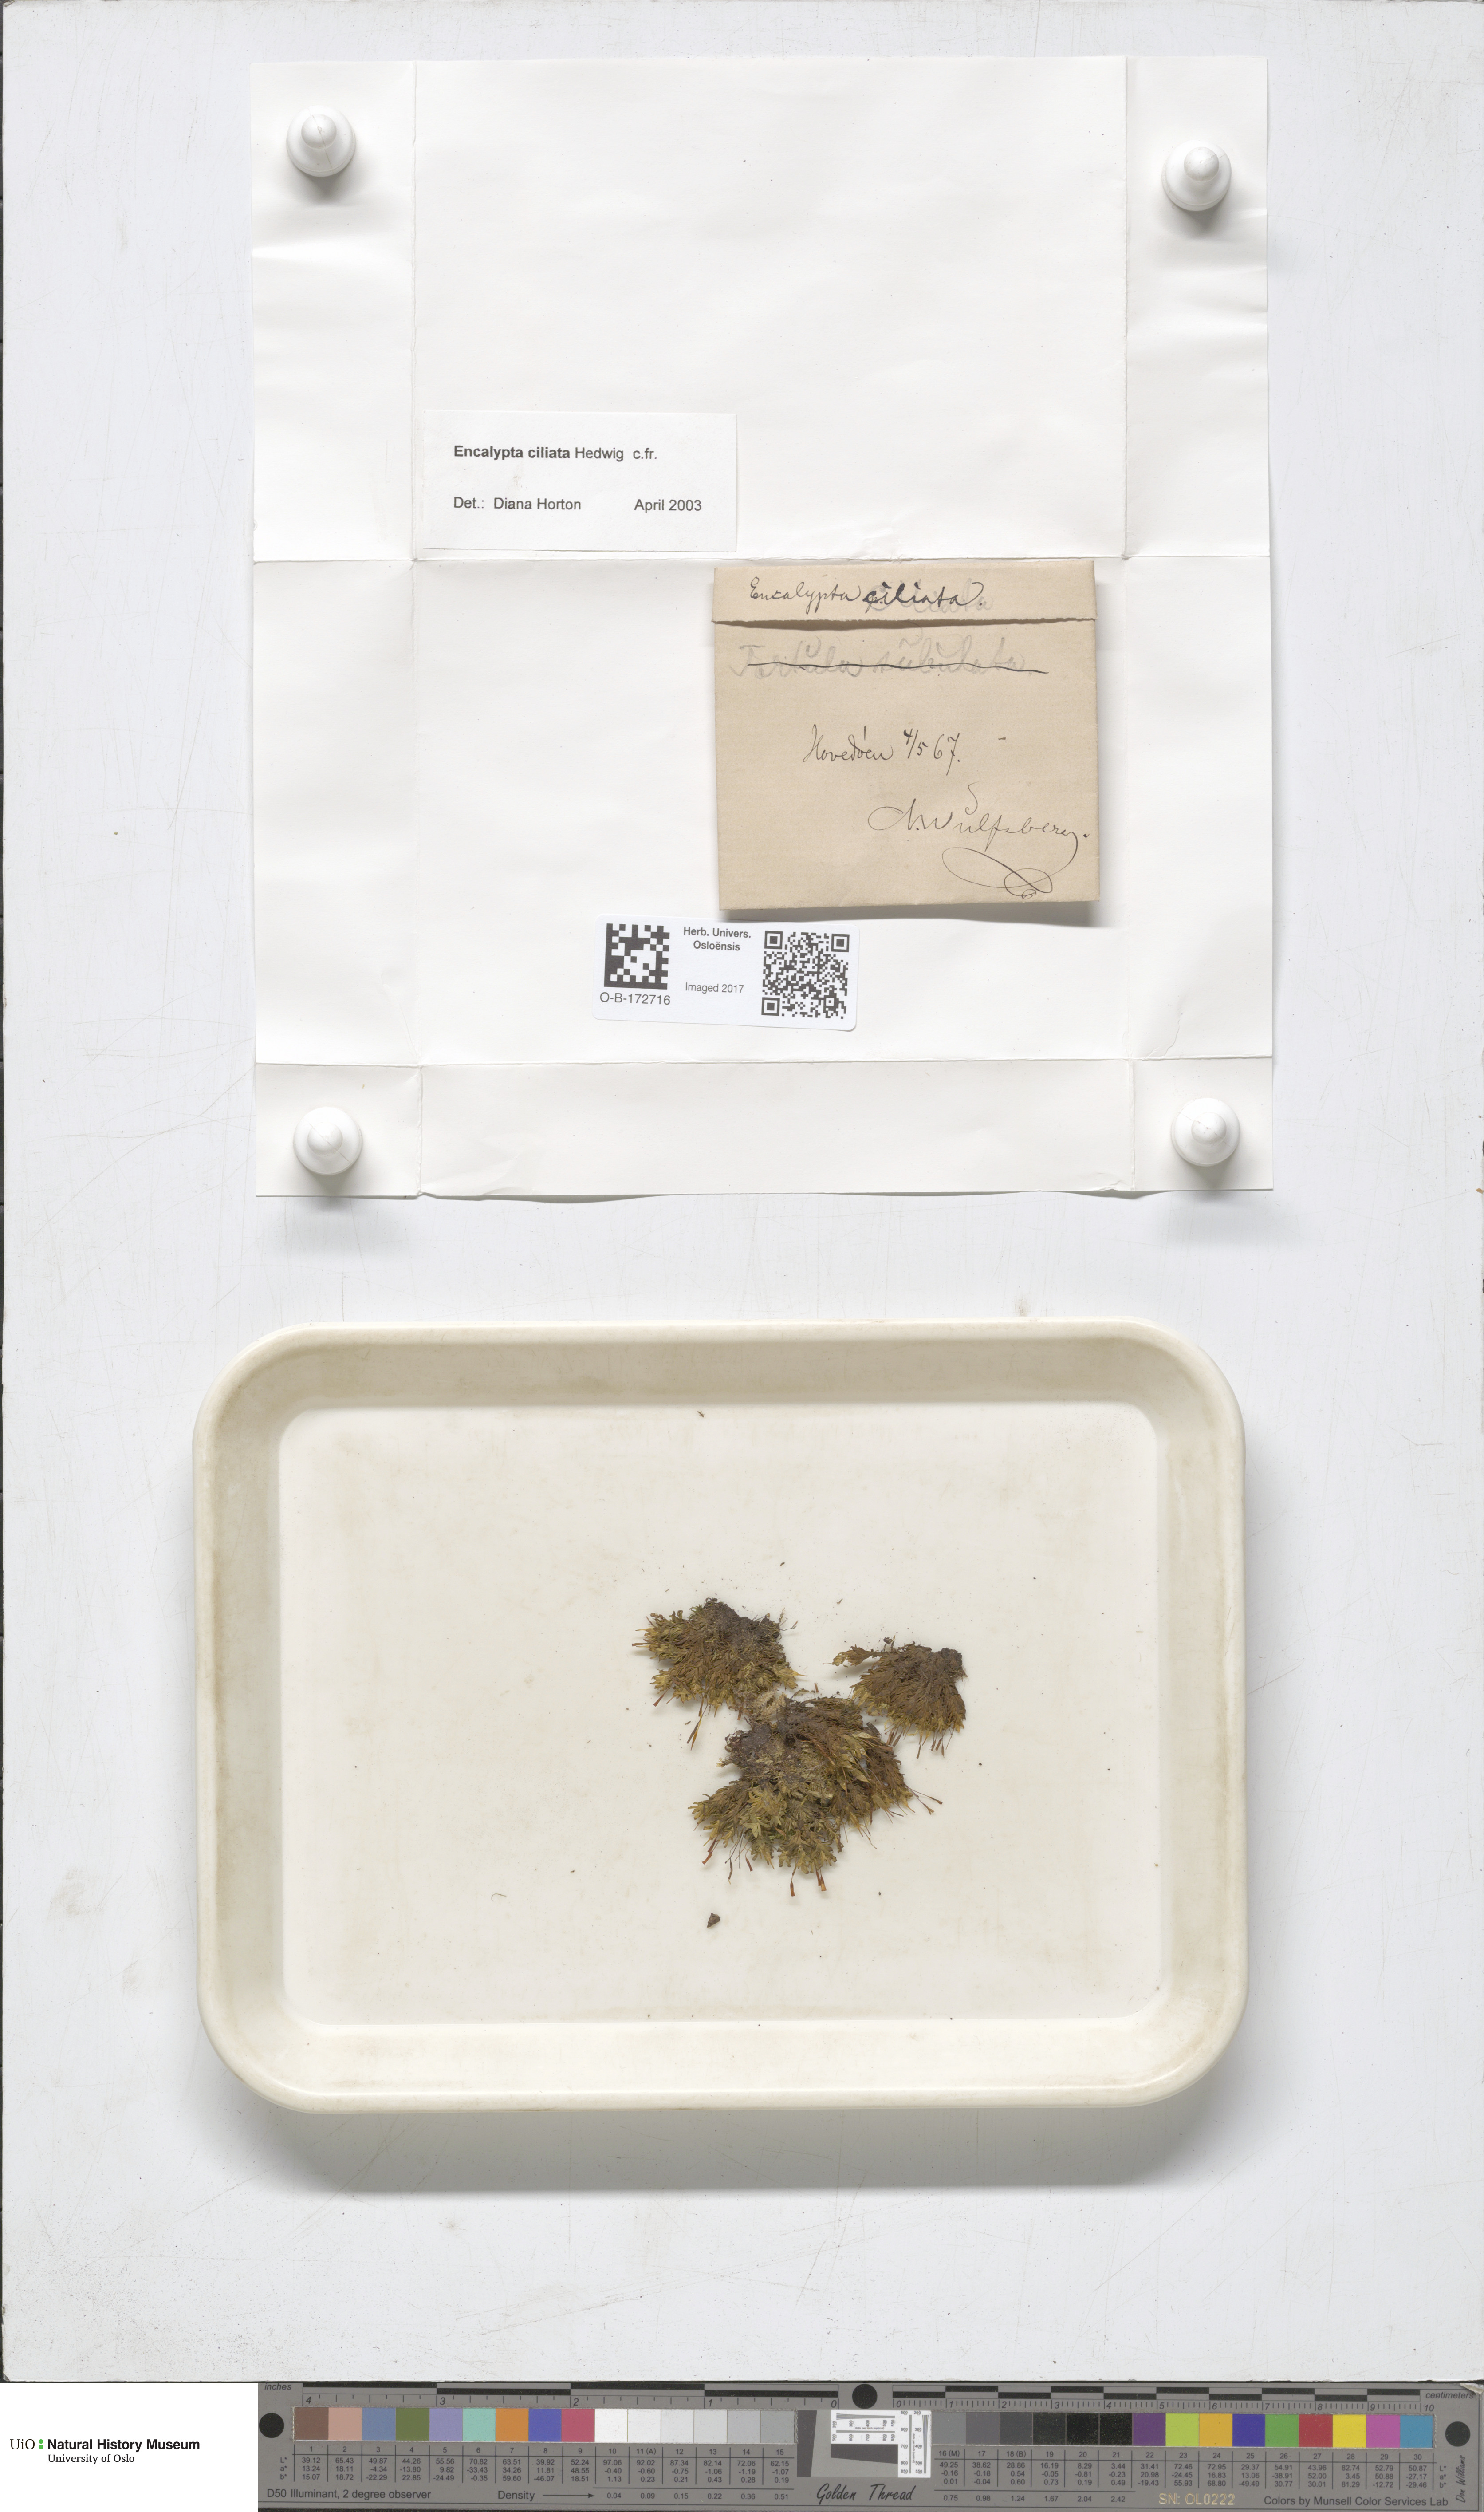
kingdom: Plantae
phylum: Bryophyta
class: Bryopsida
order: Encalyptales
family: Encalyptaceae
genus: Encalypta
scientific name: Encalypta ciliata
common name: Fringed extinguisher-moss
